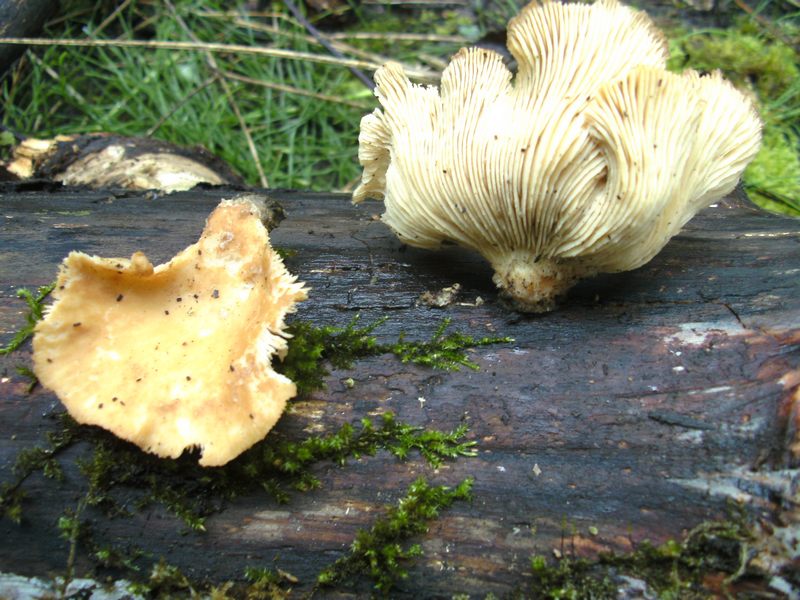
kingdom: Fungi
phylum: Basidiomycota
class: Agaricomycetes
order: Polyporales
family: Panaceae
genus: Panus
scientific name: Panus conchatus
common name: filtstokket læderhat
